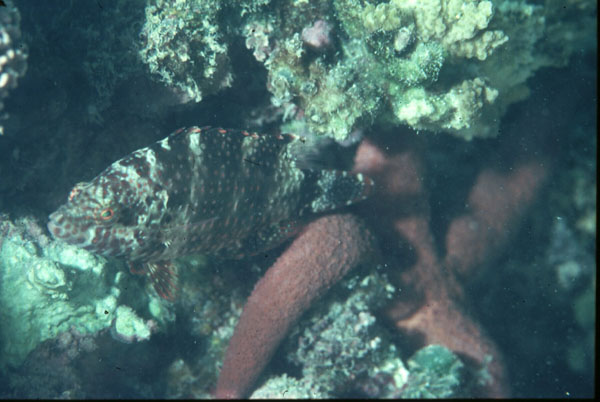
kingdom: Animalia
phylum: Chordata
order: Perciformes
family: Labridae
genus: Cheilinus
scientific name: Cheilinus chlorourus
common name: Floral wrasse
